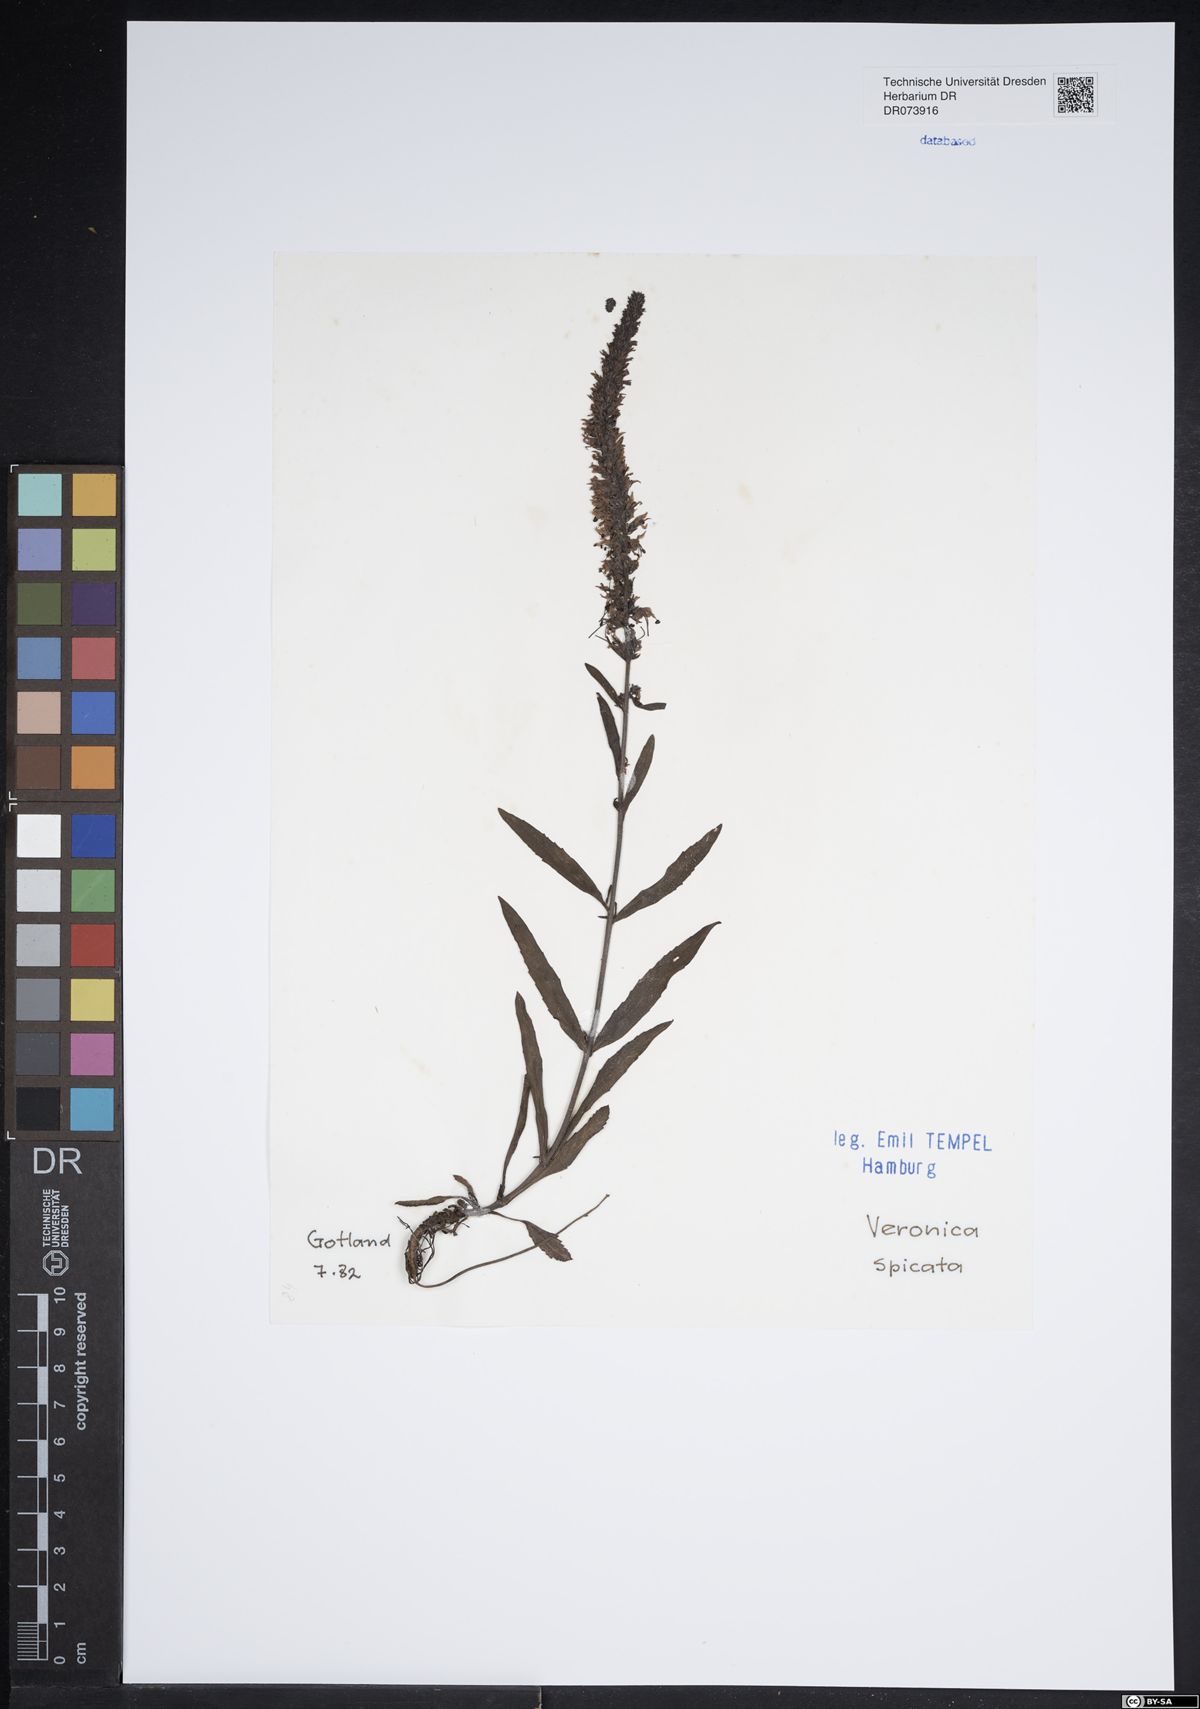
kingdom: Plantae
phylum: Tracheophyta
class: Magnoliopsida
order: Lamiales
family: Plantaginaceae
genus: Veronica
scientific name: Veronica spicata
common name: Spiked speedwell
